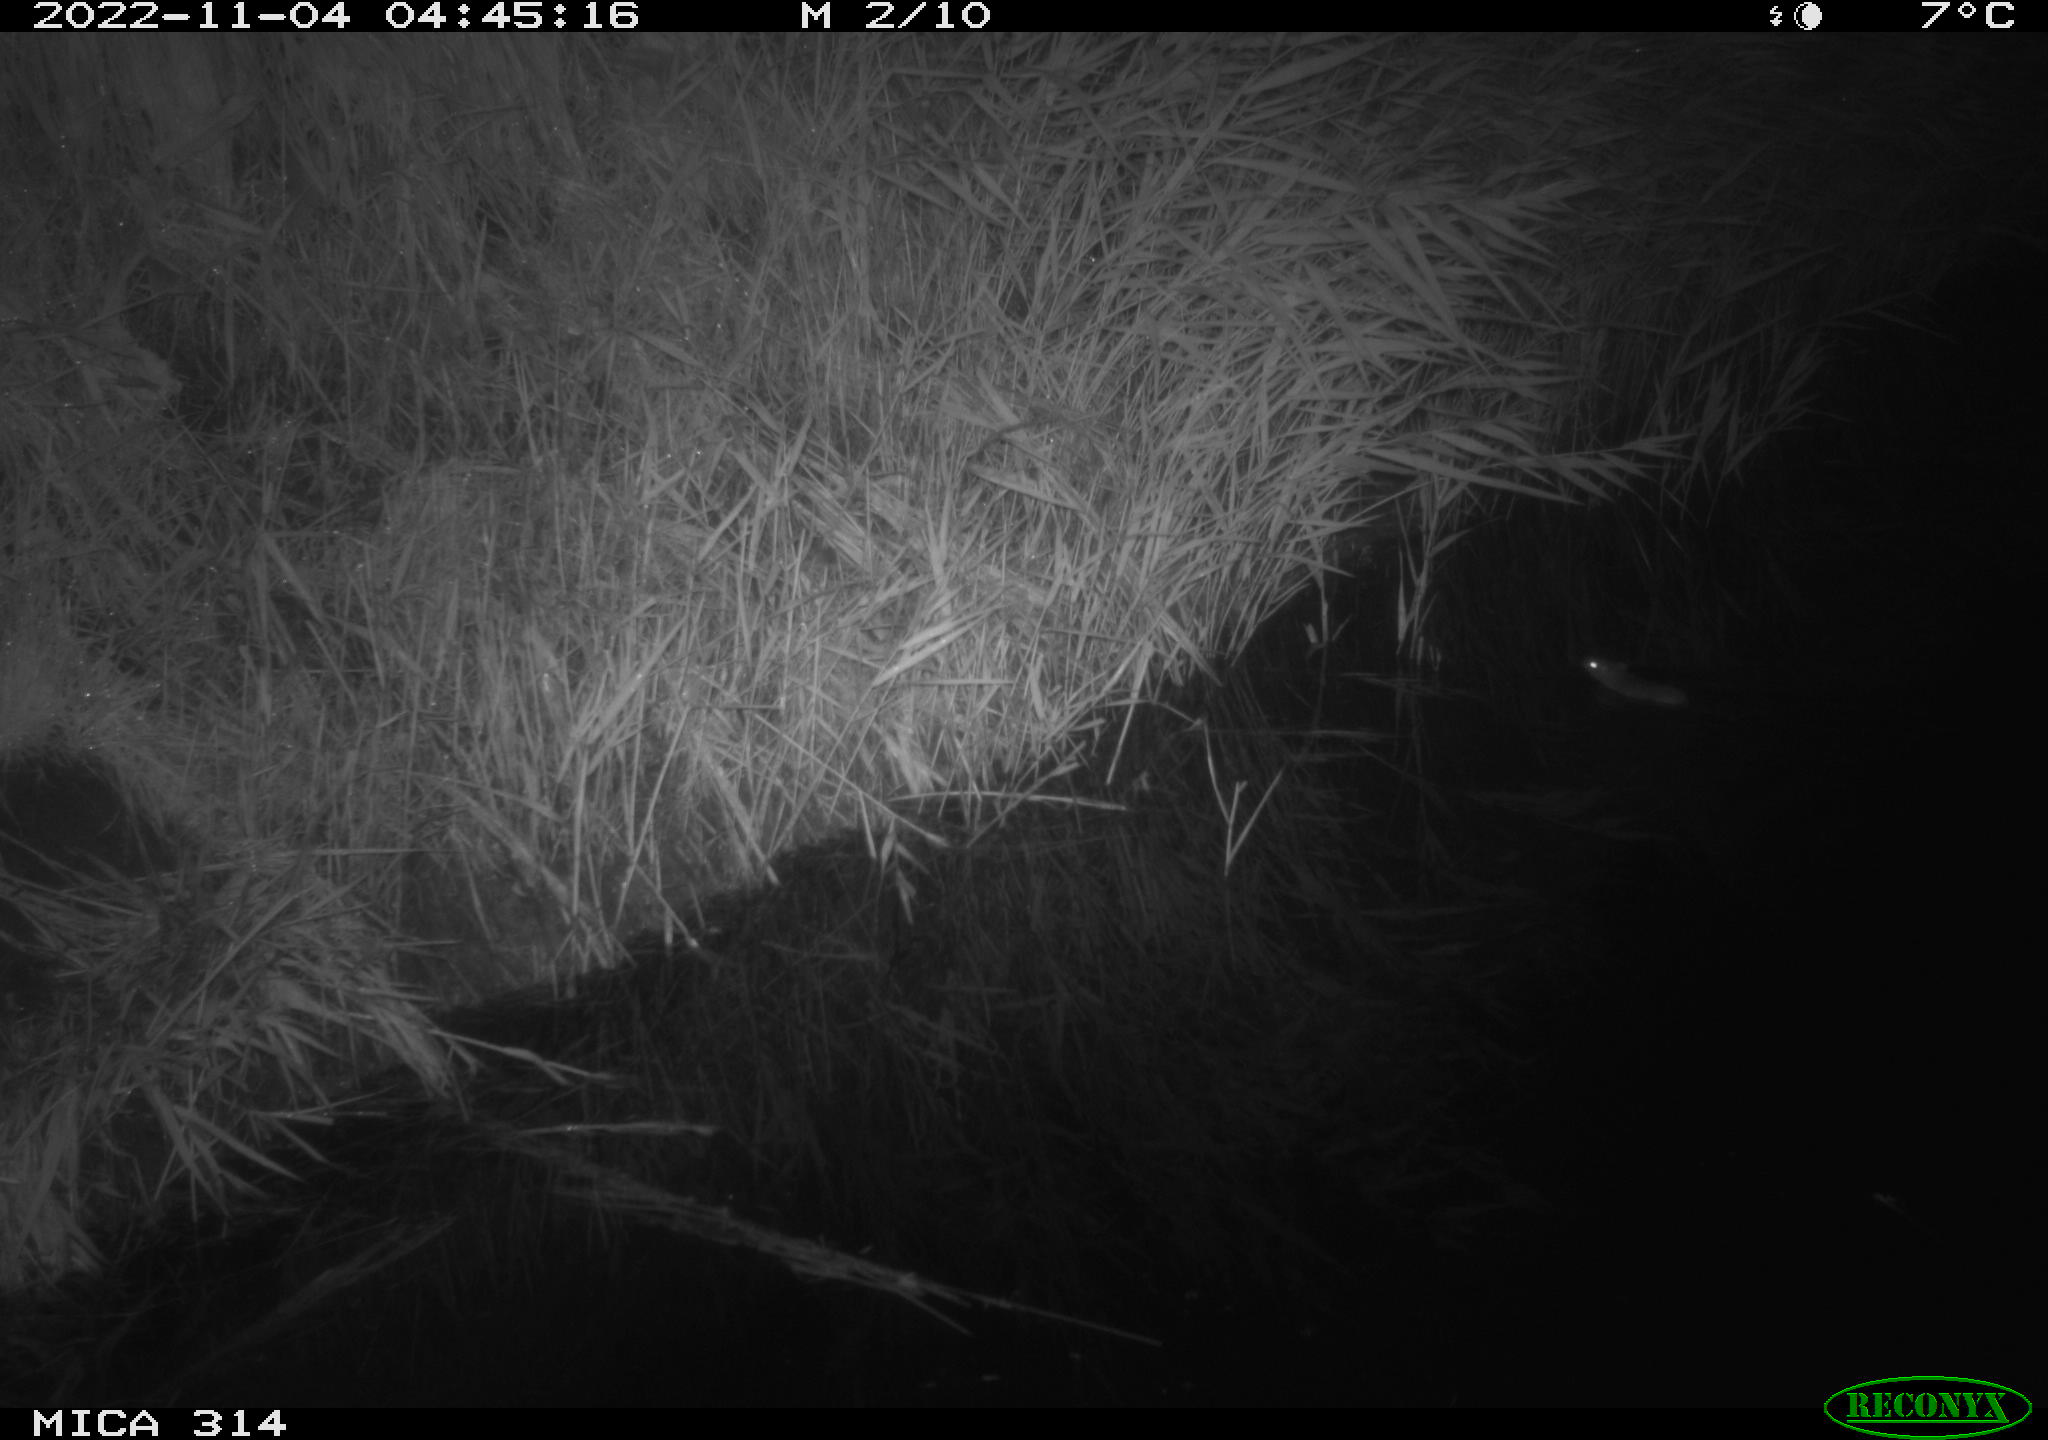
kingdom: Animalia
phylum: Chordata
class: Mammalia
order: Rodentia
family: Muridae
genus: Rattus
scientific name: Rattus norvegicus
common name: Brown rat
